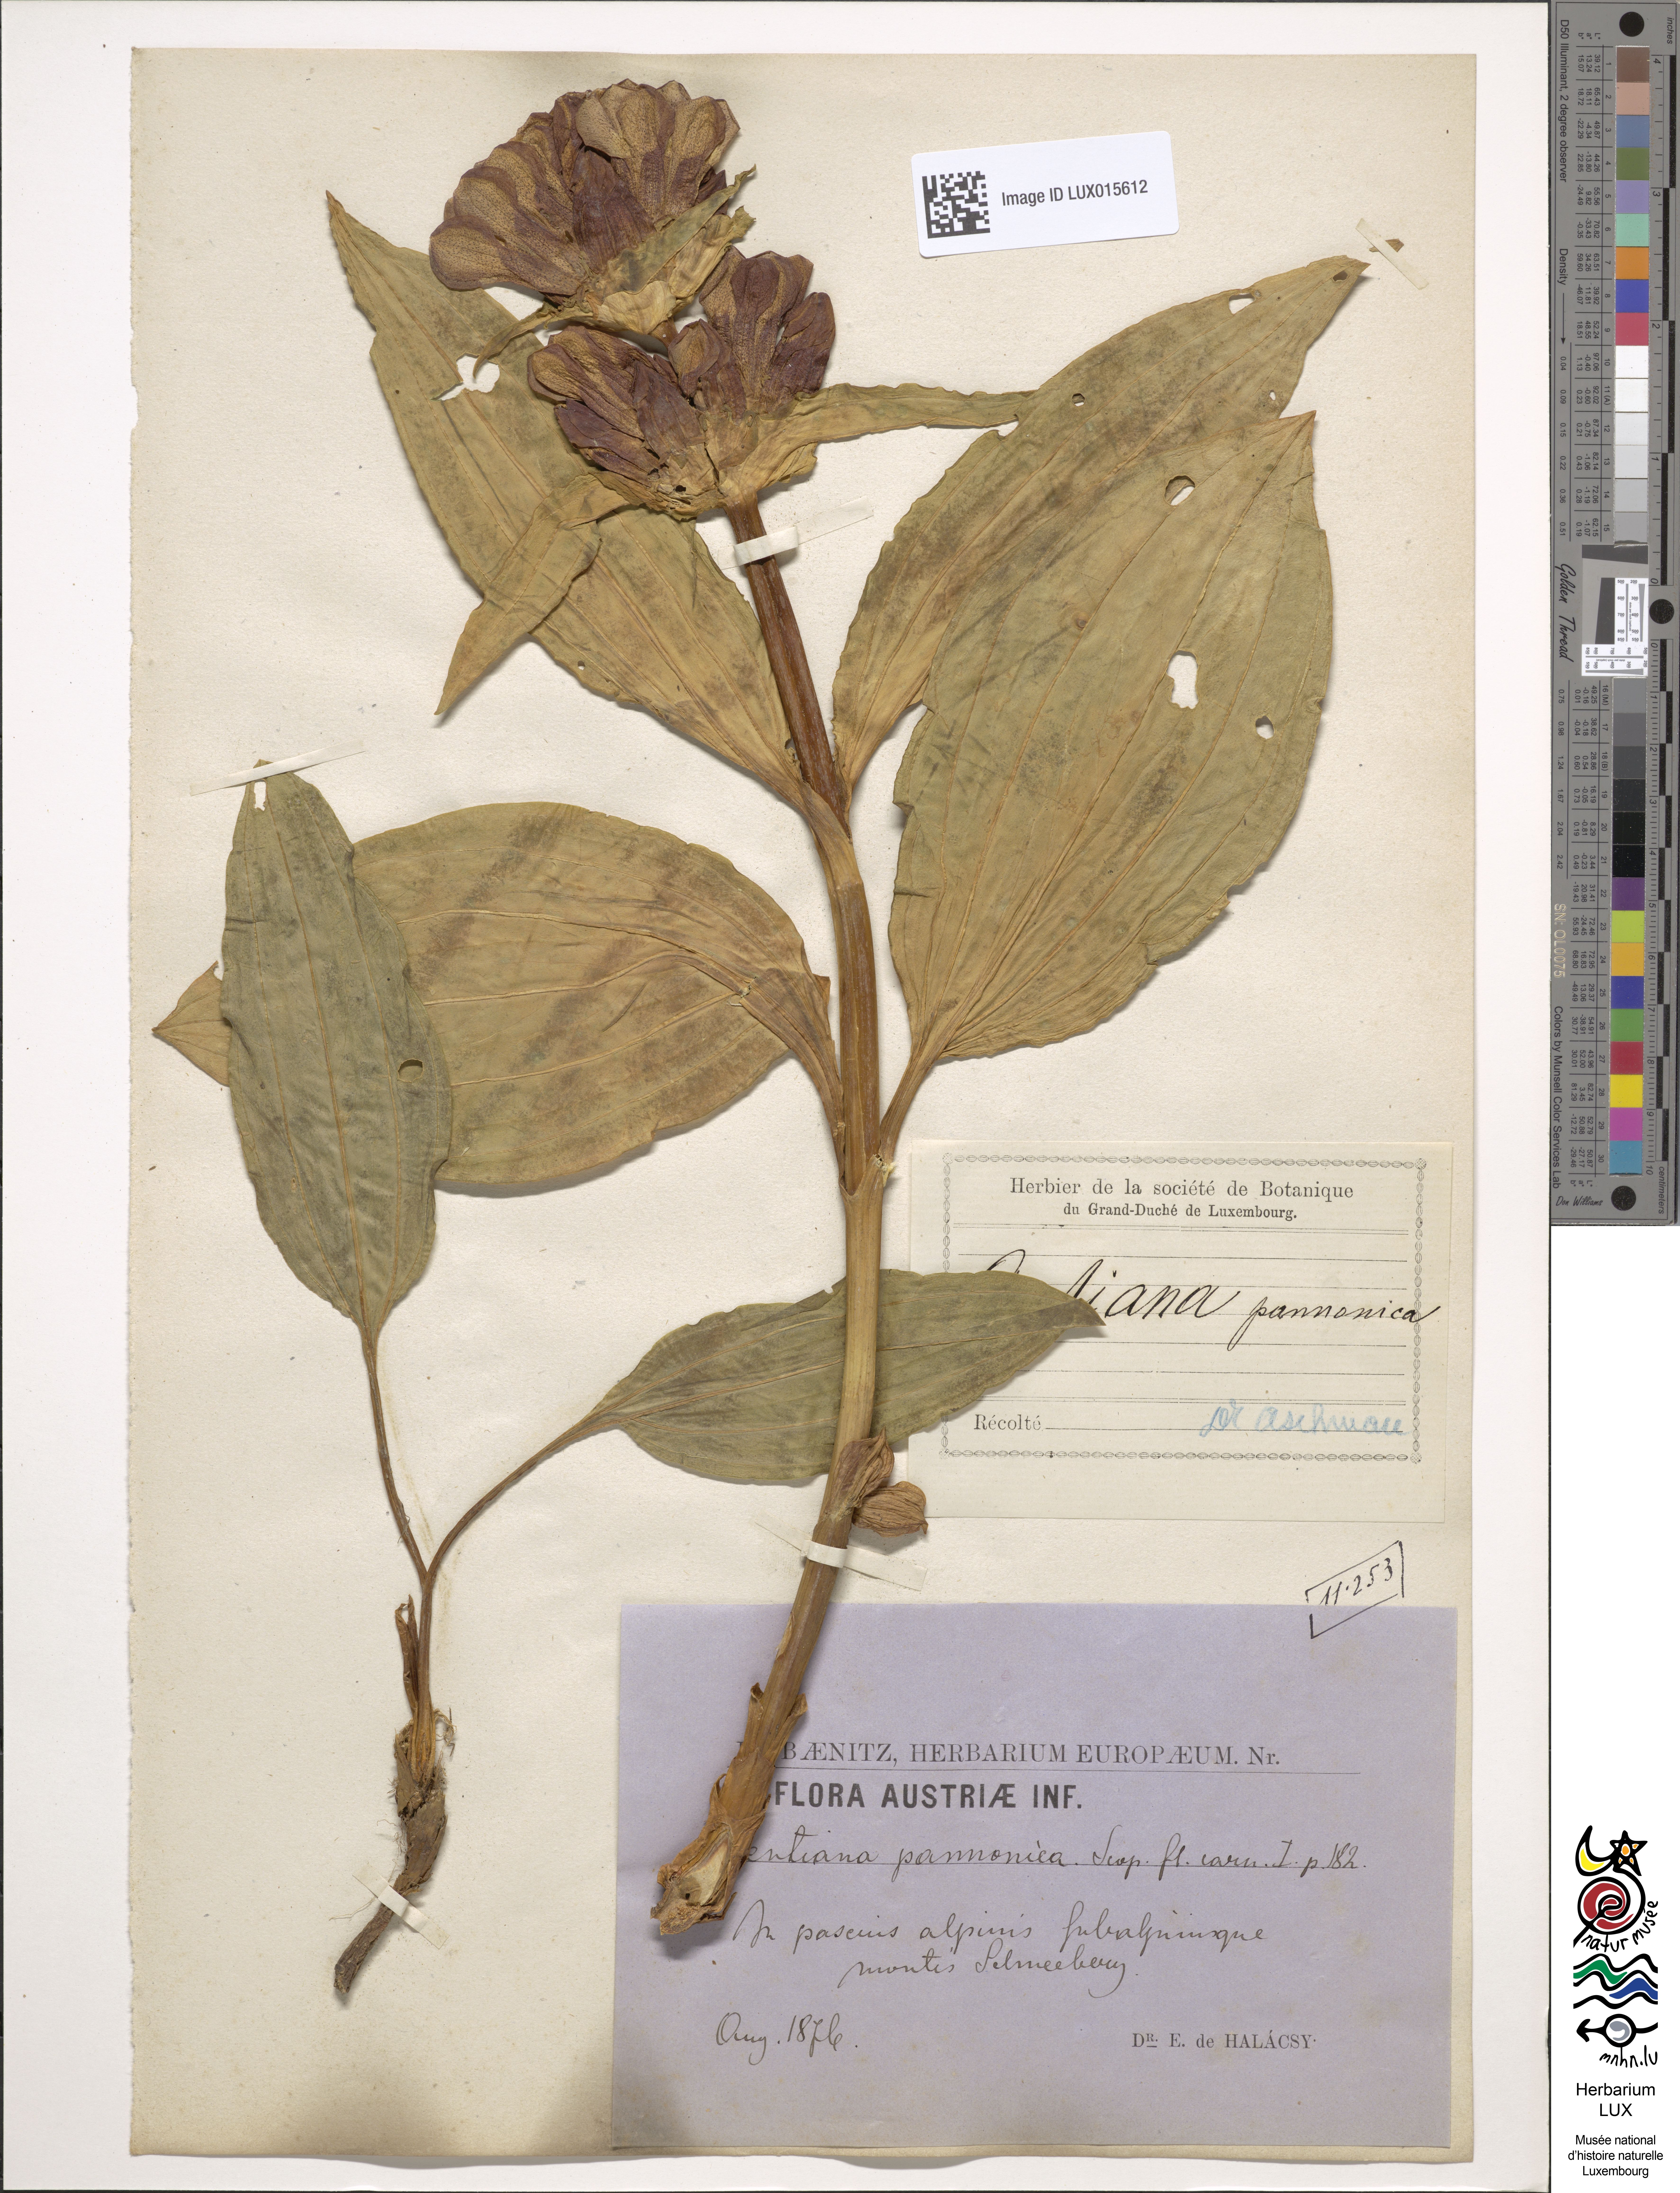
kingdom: Plantae
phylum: Tracheophyta
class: Magnoliopsida
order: Gentianales
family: Gentianaceae
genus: Gentiana
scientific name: Gentiana pannonica
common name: Hungarian gentian
